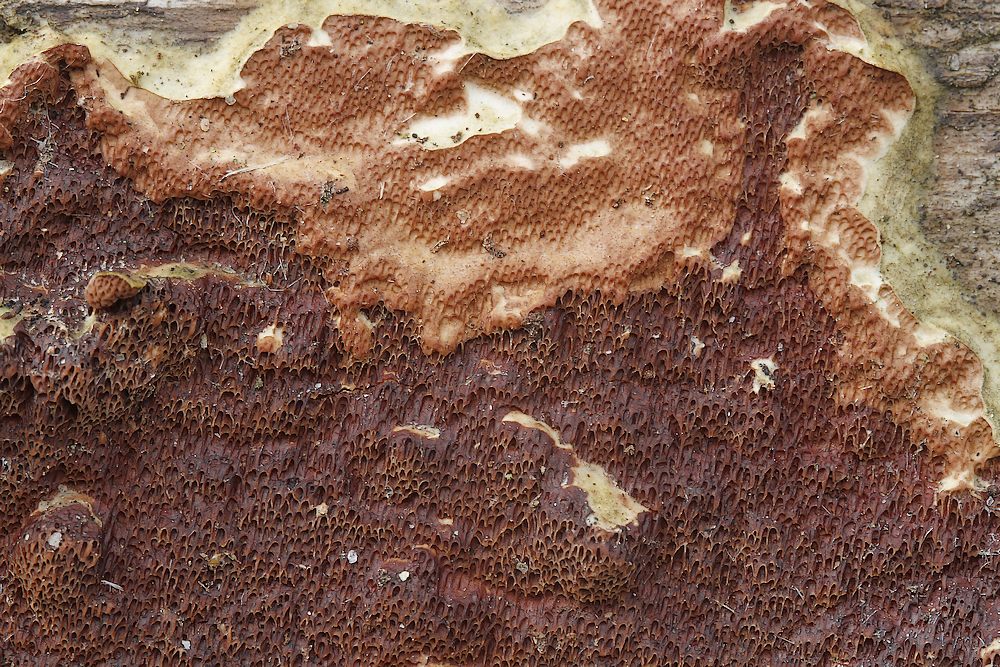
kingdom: Fungi
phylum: Basidiomycota
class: Agaricomycetes
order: Polyporales
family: Irpicaceae
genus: Meruliopsis
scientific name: Meruliopsis taxicola
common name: purpurbrun foldporesvamp
